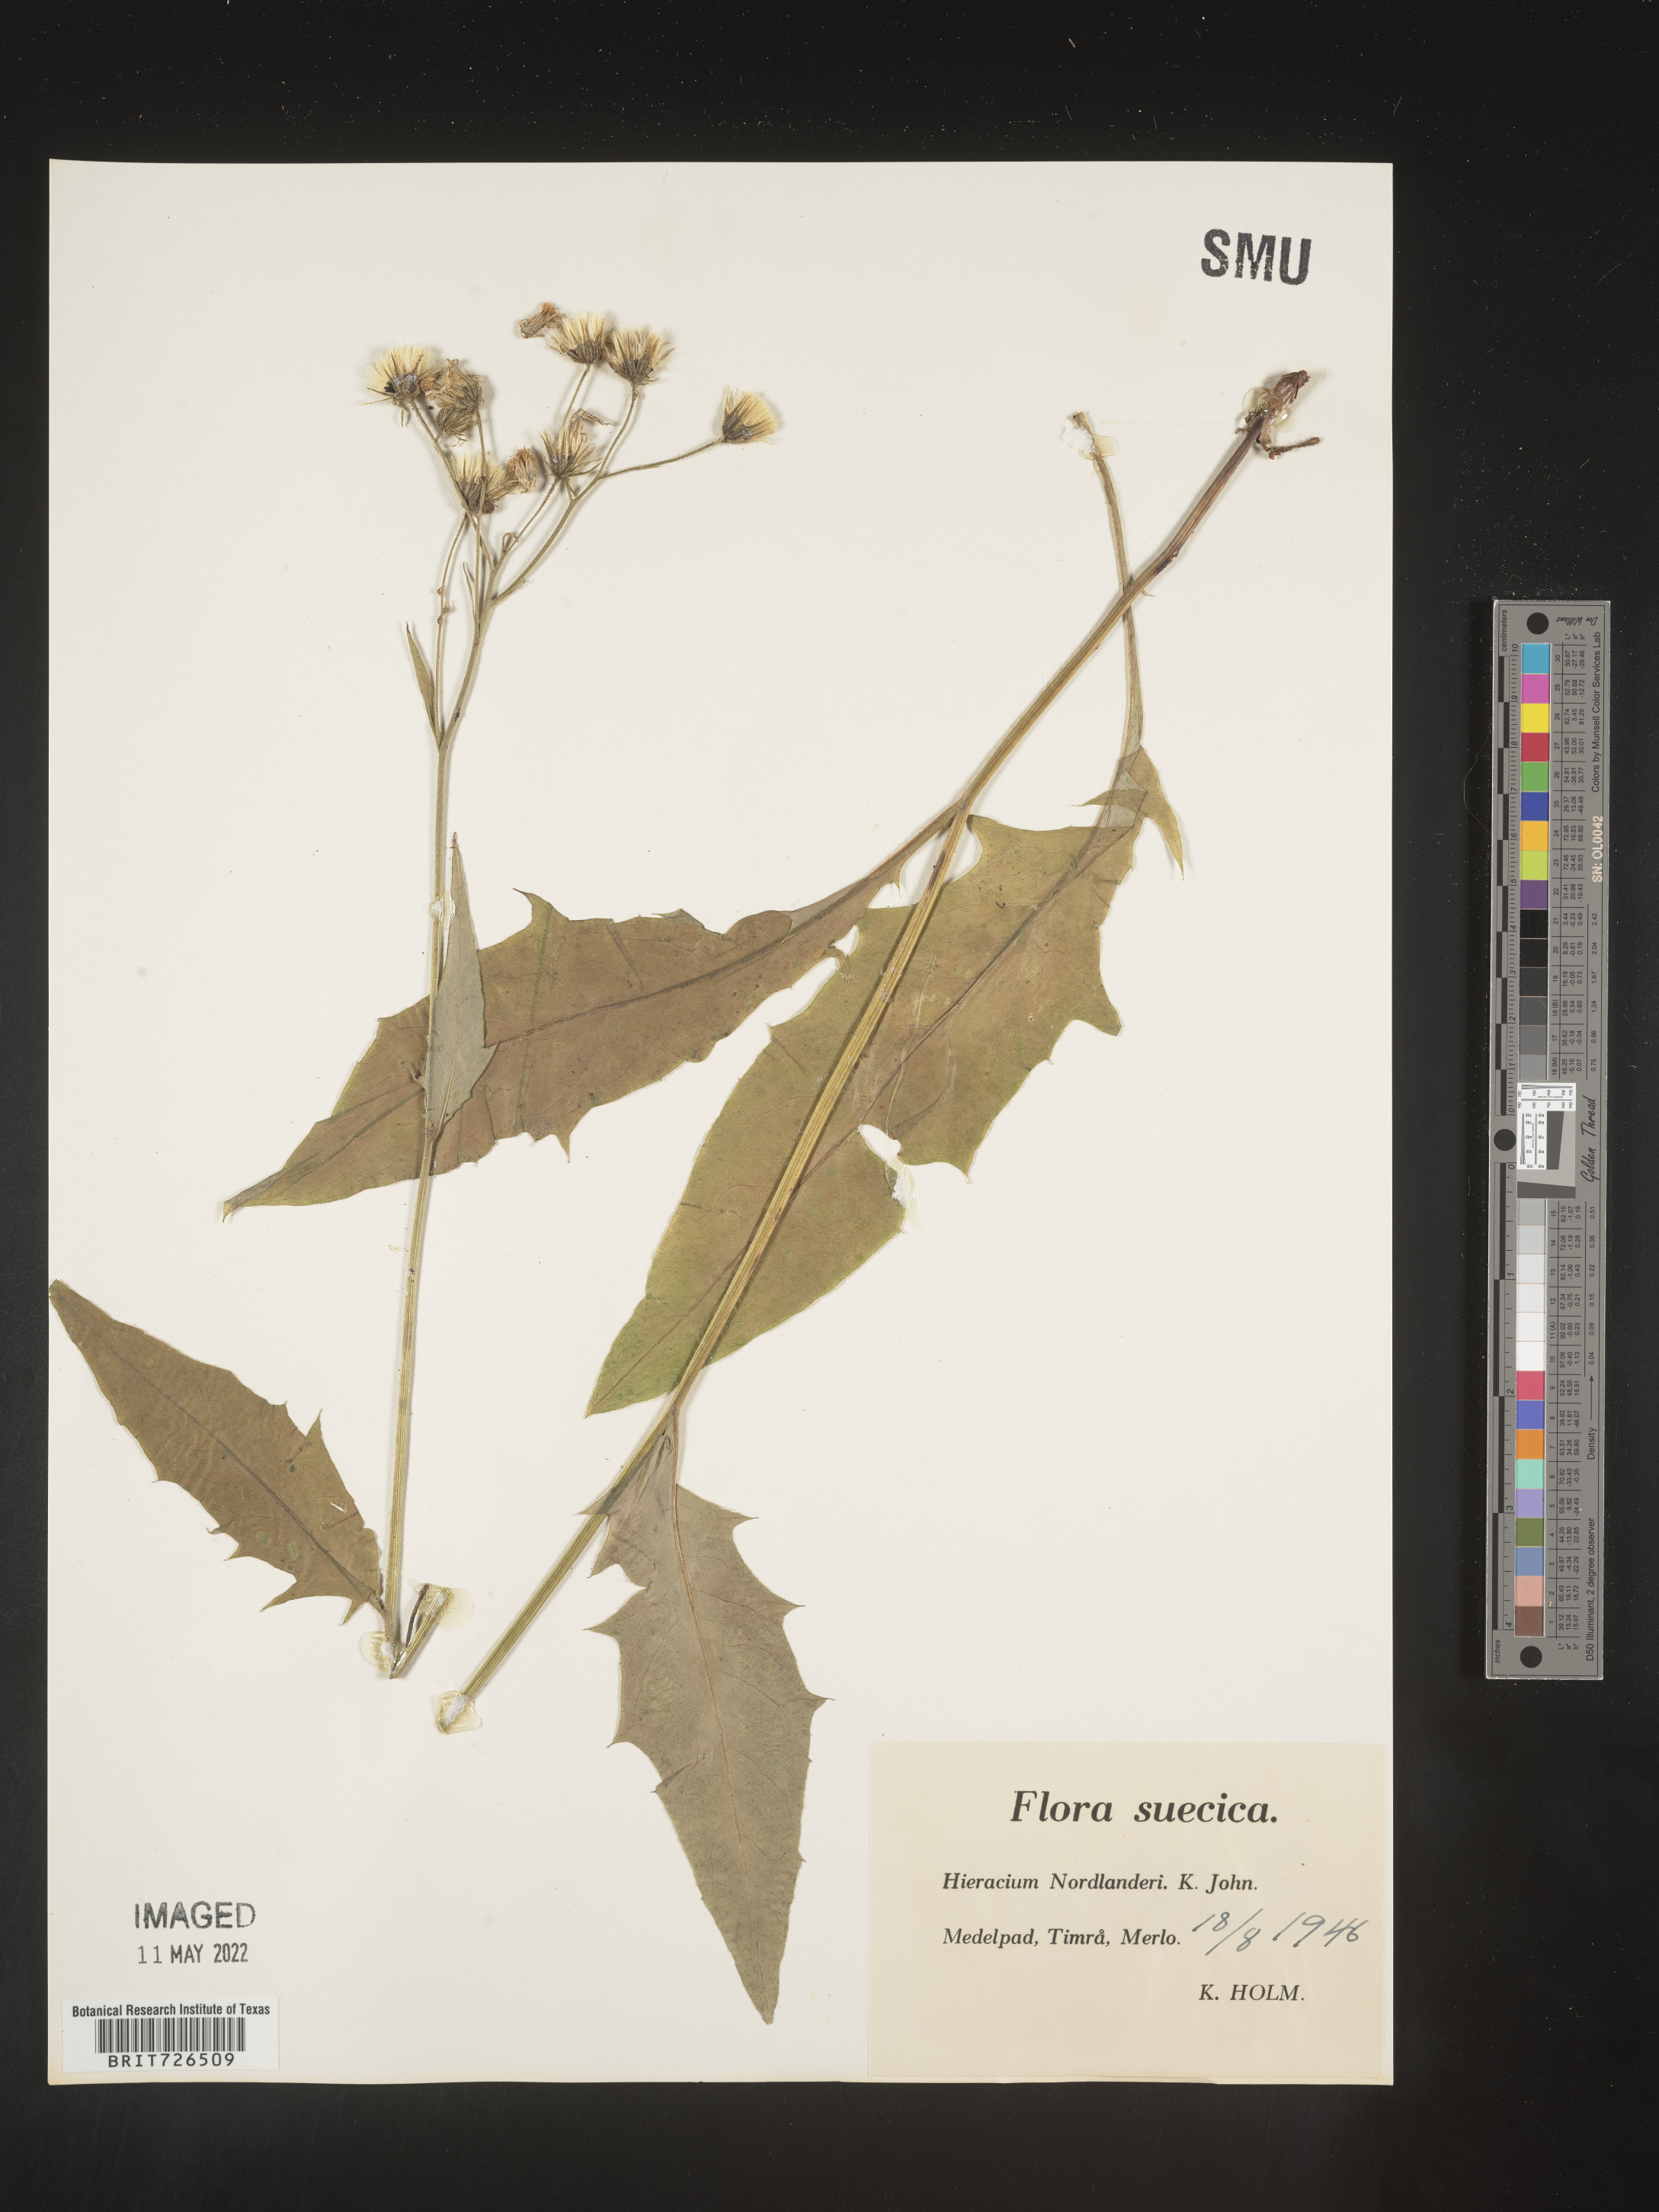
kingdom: Plantae
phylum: Tracheophyta
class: Magnoliopsida
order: Asterales
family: Asteraceae
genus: Hieracium
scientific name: Hieracium
